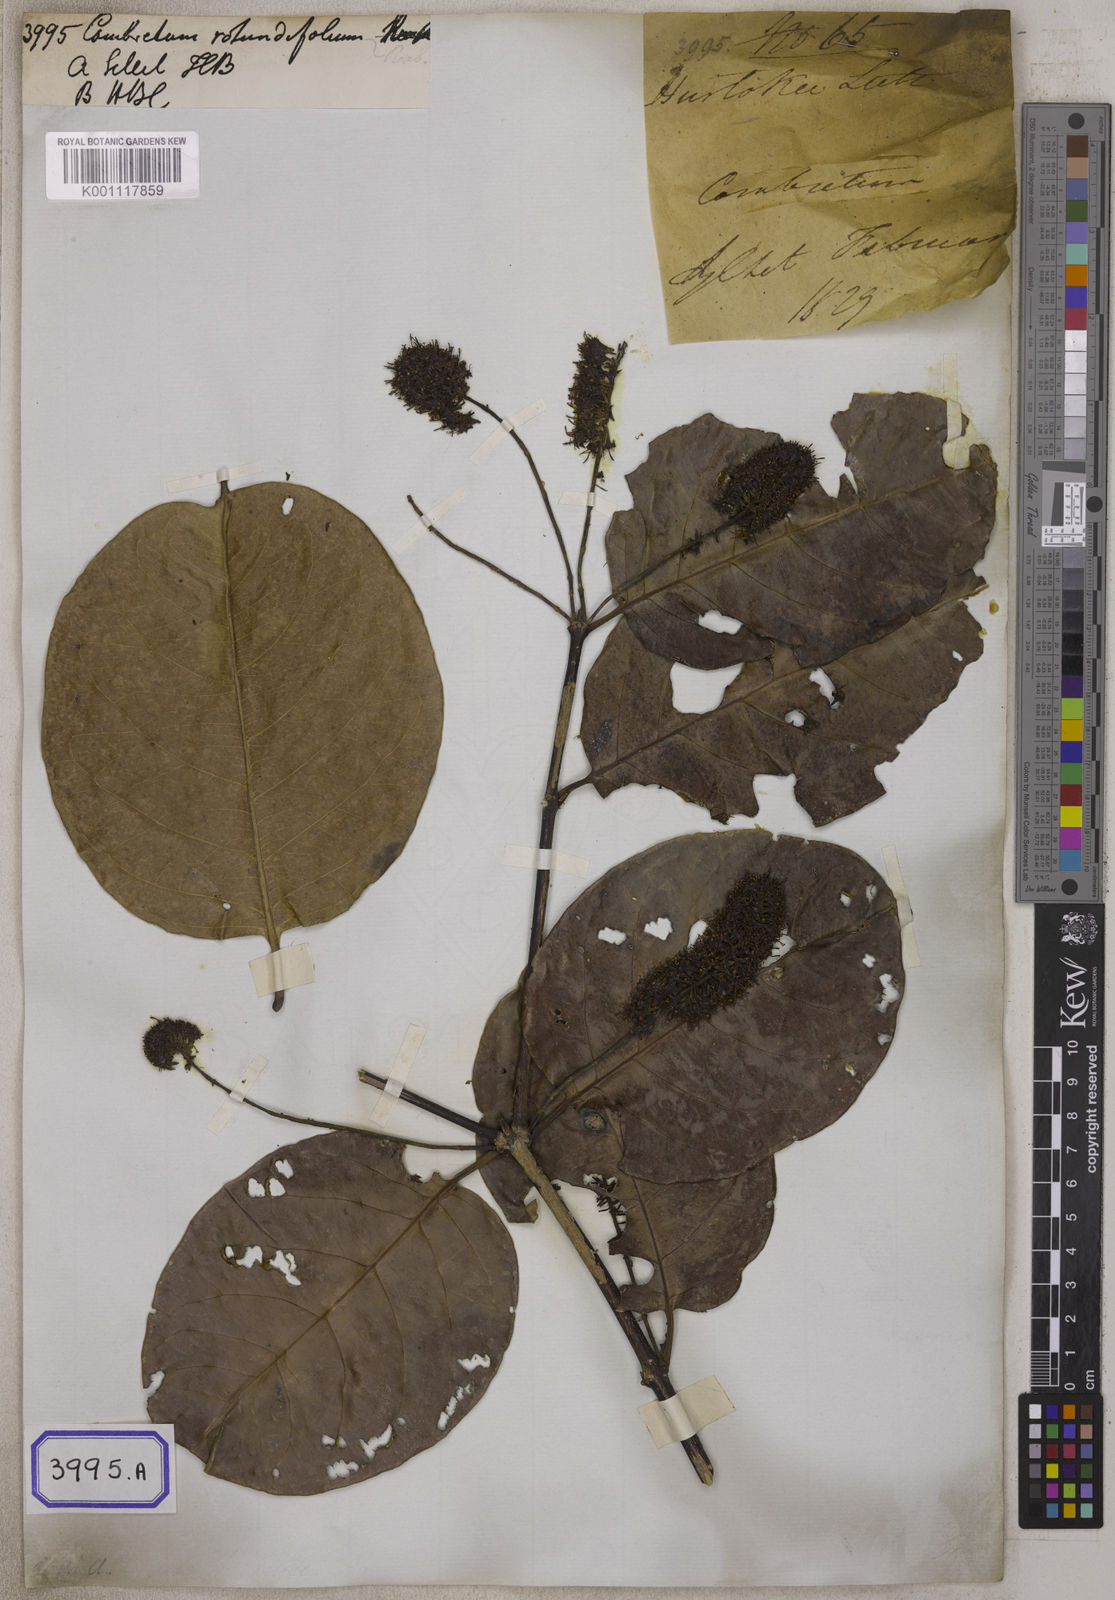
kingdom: Plantae
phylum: Tracheophyta
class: Magnoliopsida
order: Myrtales
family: Combretaceae
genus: Combretum
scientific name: Combretum latifolium
